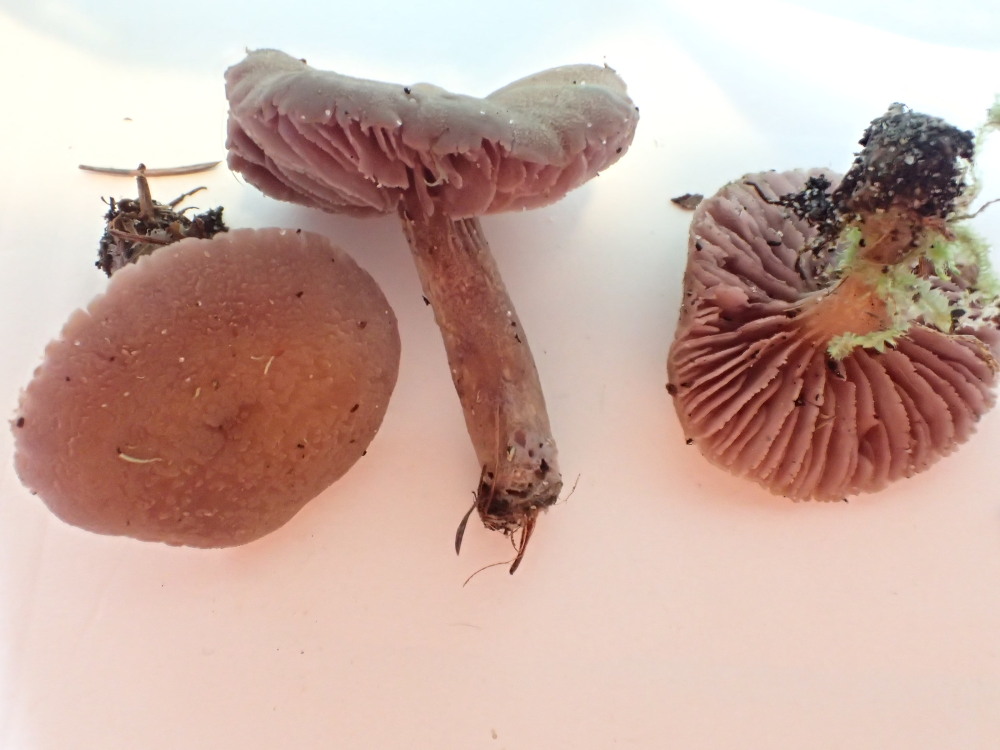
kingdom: Fungi
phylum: Basidiomycota
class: Agaricomycetes
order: Agaricales
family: Hydnangiaceae
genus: Laccaria
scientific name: Laccaria amethystina
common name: violet ametysthat
